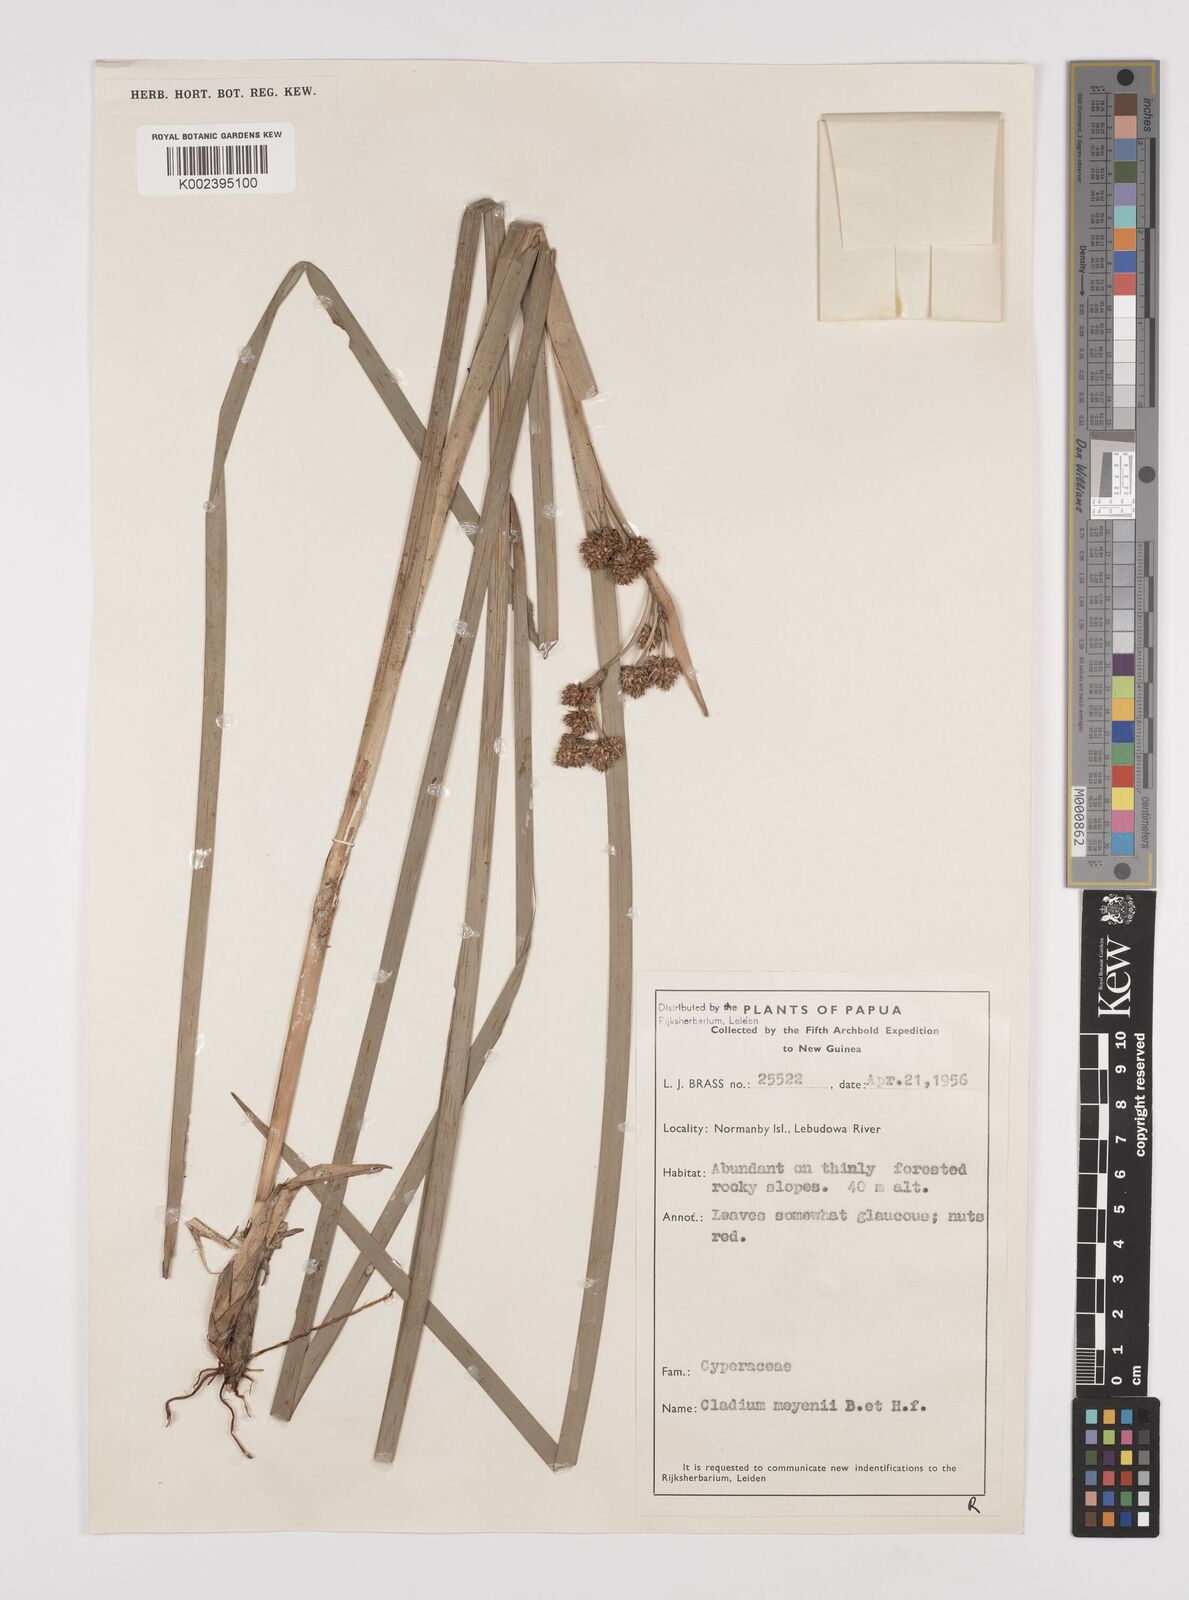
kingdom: Plantae
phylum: Tracheophyta
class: Liliopsida
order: Poales
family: Cyperaceae
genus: Machaerina
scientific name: Machaerina glomerata
